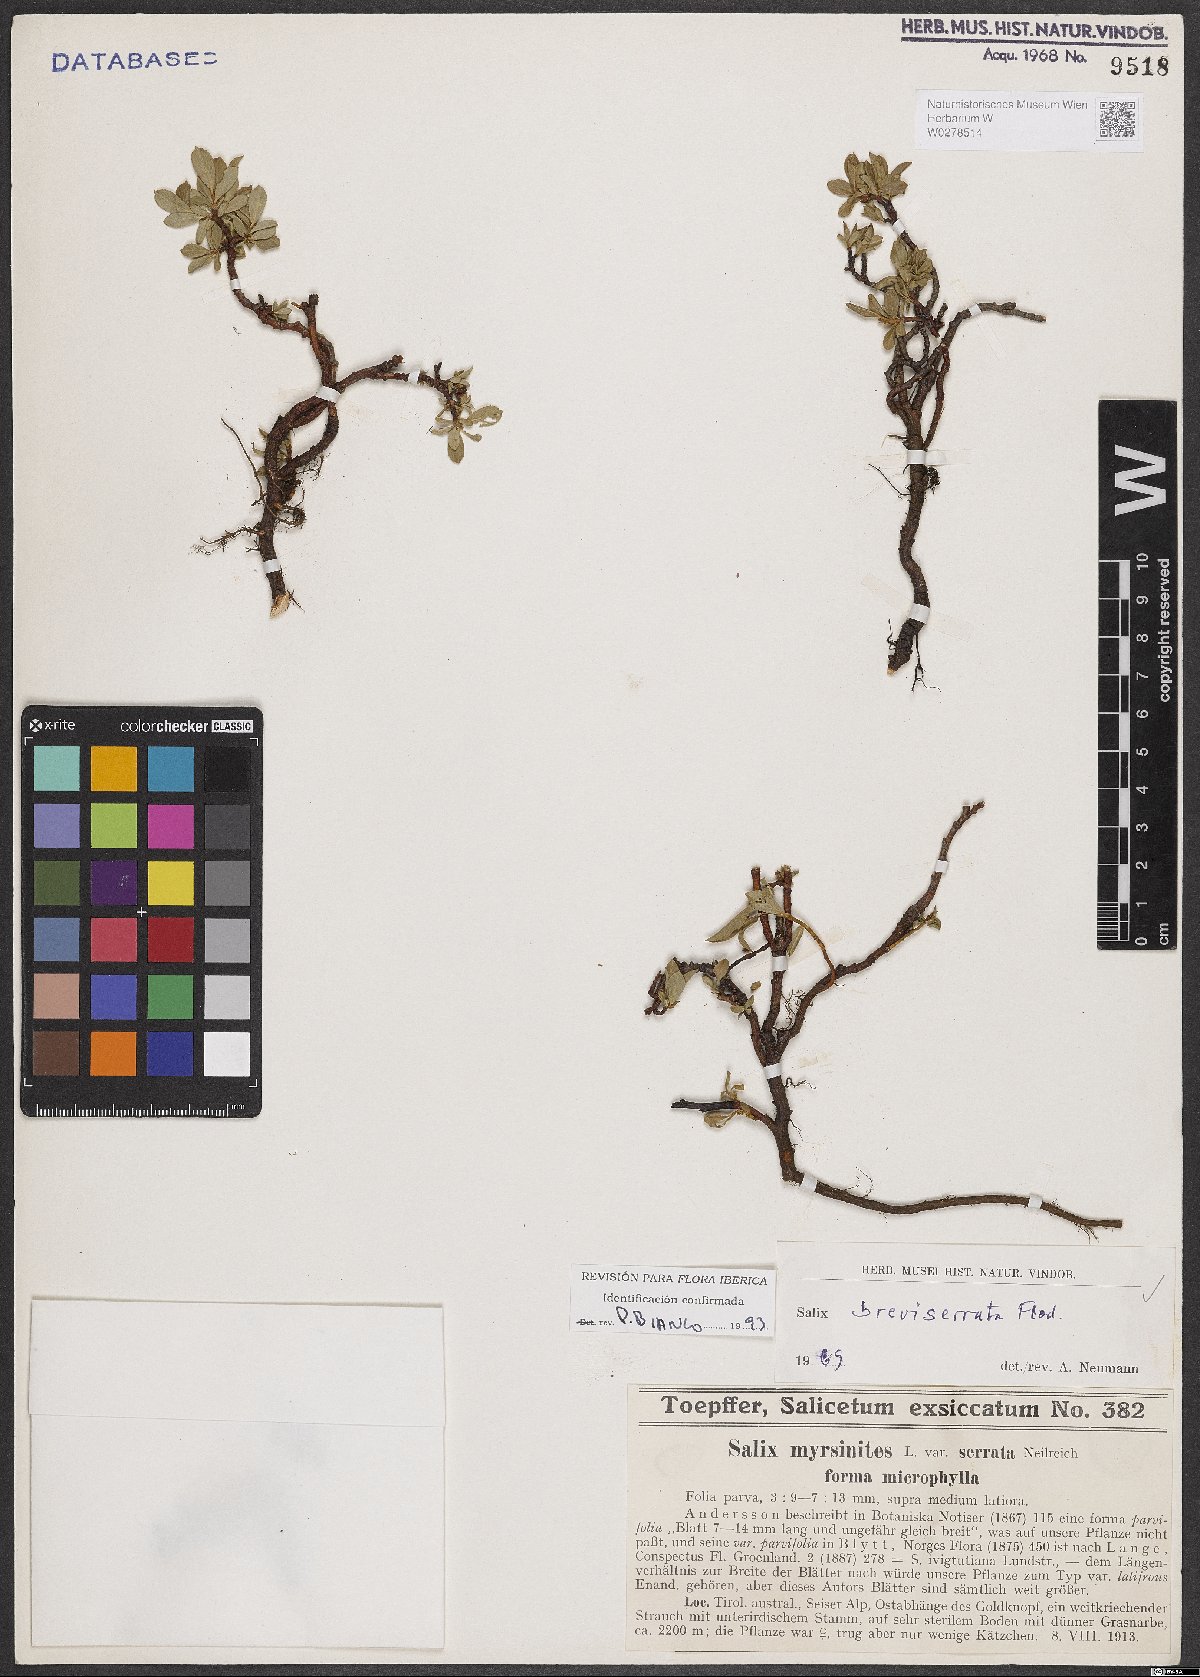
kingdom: Plantae
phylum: Tracheophyta
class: Magnoliopsida
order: Malpighiales
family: Salicaceae
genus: Salix
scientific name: Salix breviserrata
